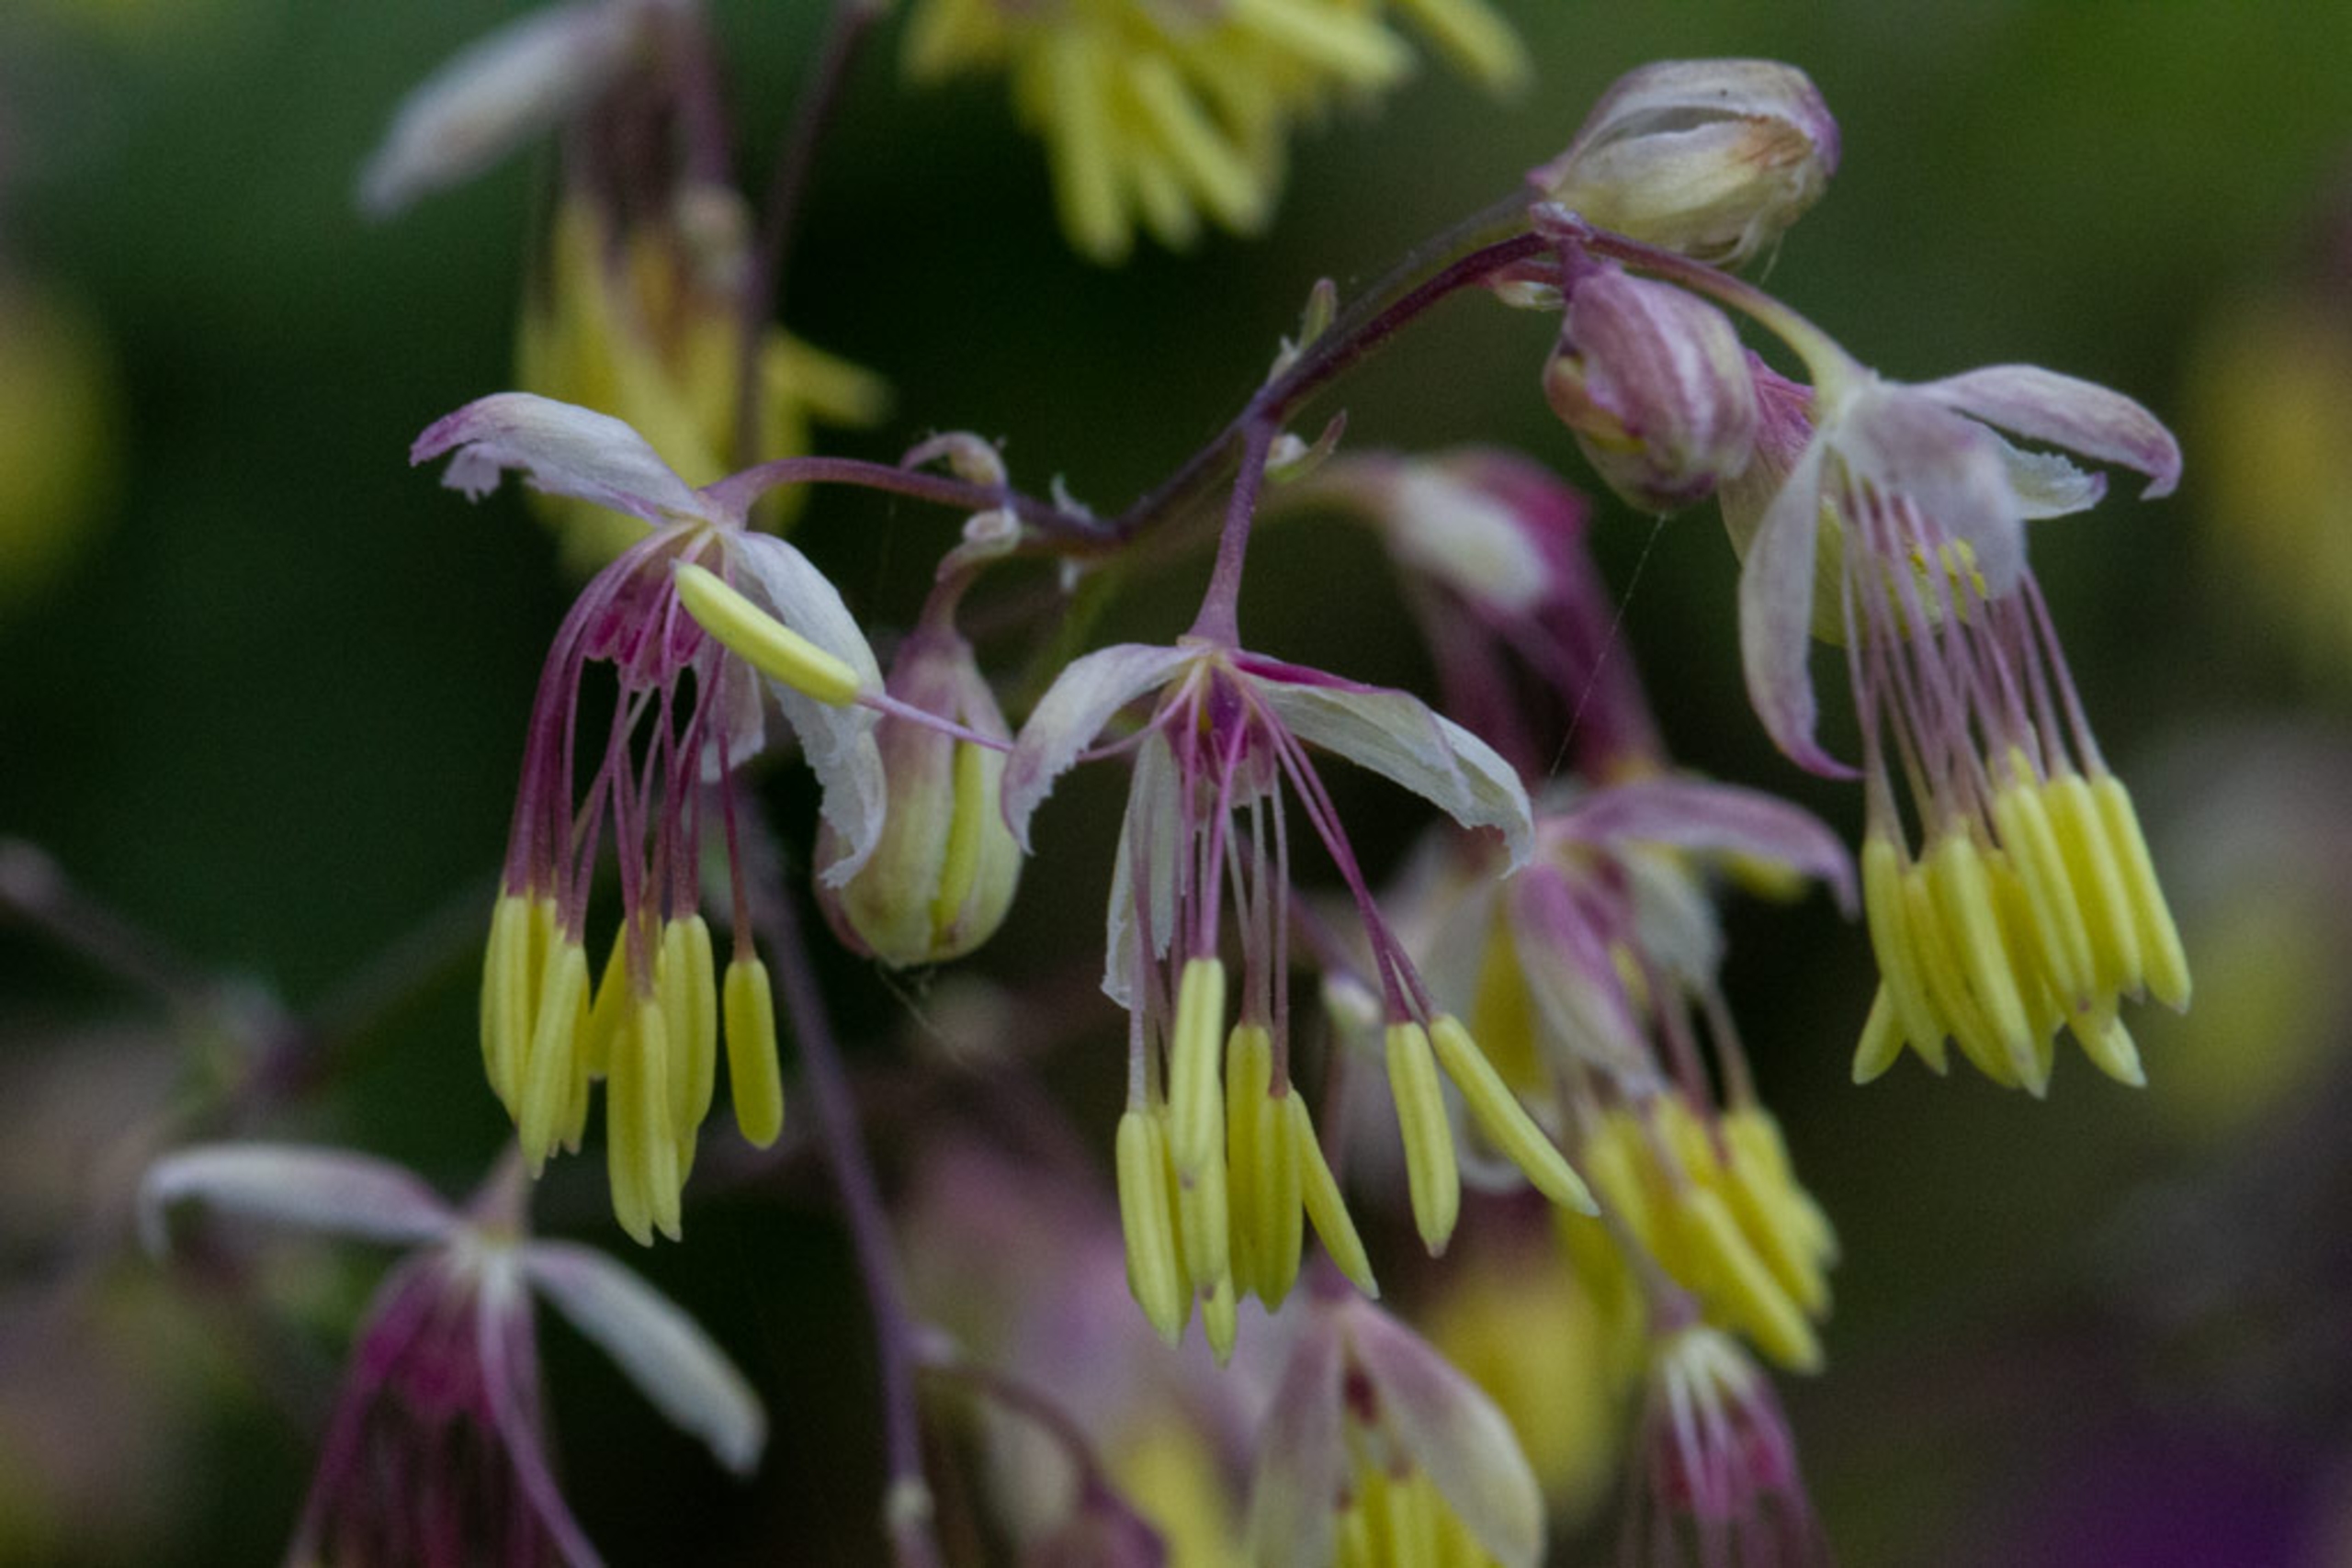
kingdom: Plantae
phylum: Tracheophyta
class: Magnoliopsida
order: Ranunculales
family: Ranunculaceae
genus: Thalictrum
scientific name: Thalictrum delavayi
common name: Viol-frøstjerne
